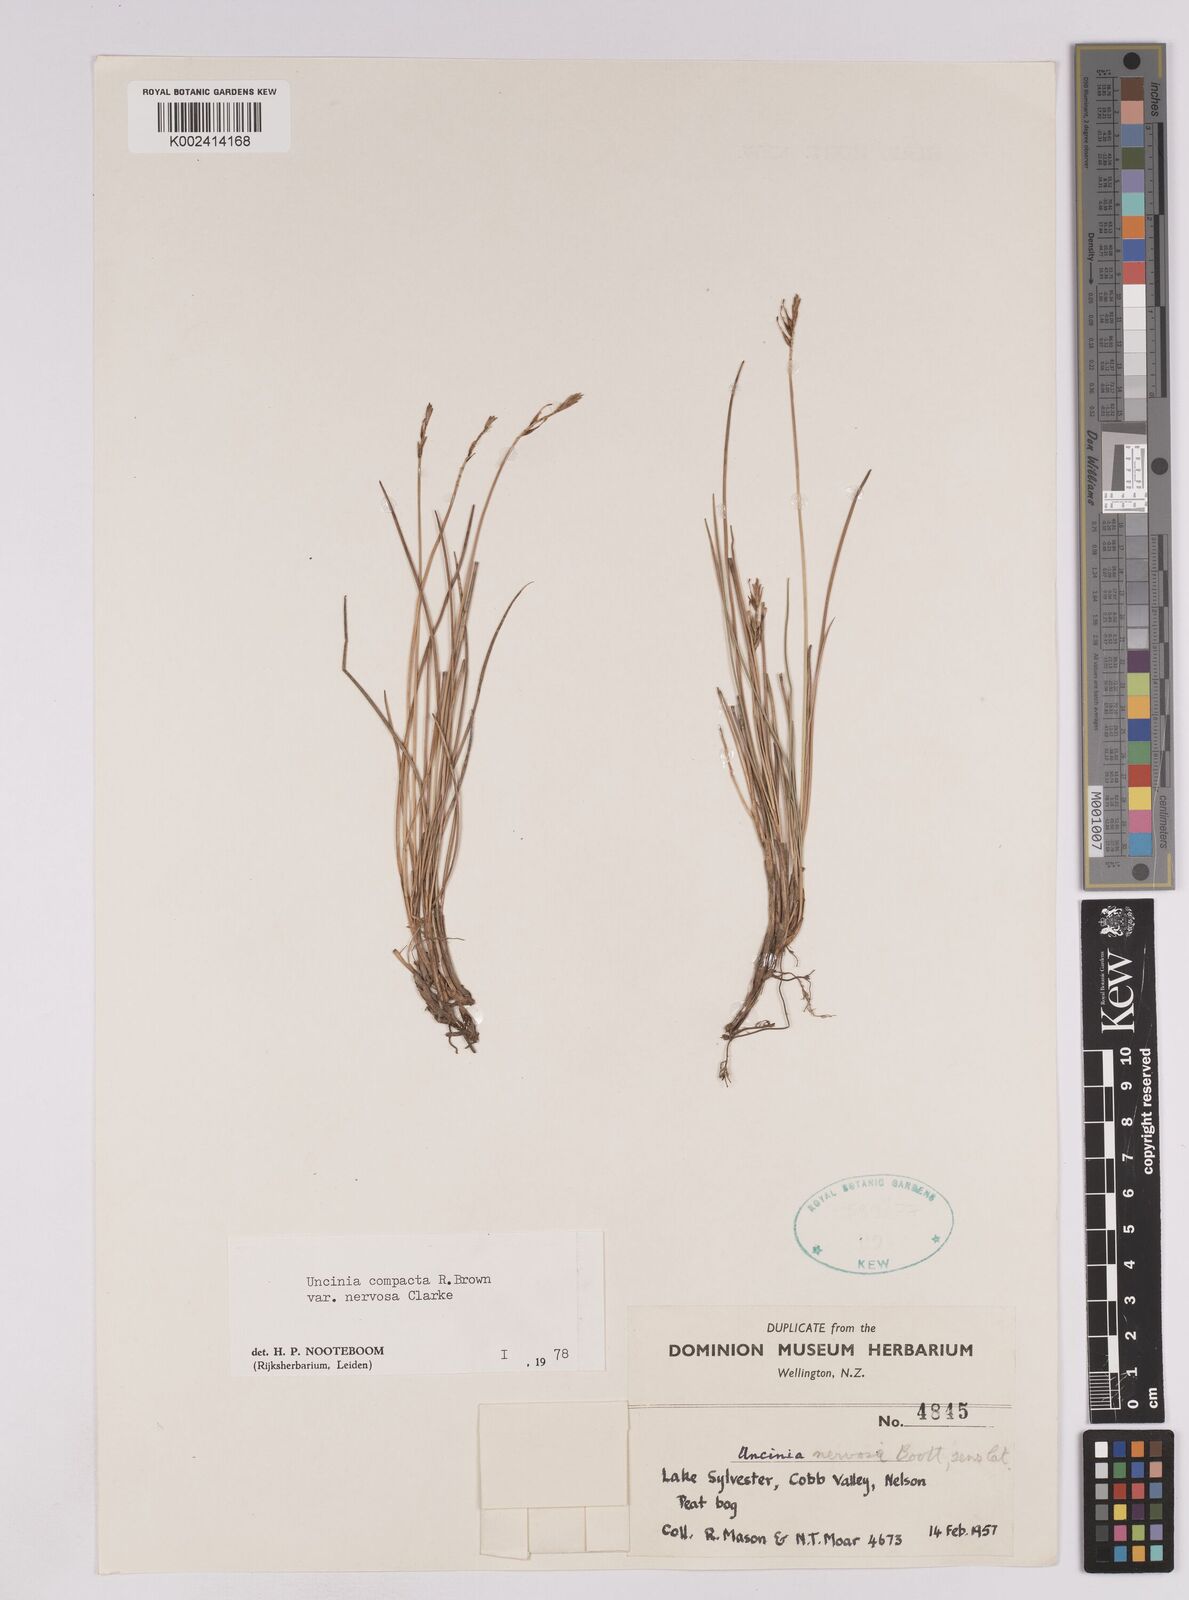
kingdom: Plantae
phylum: Tracheophyta
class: Liliopsida
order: Poales
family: Cyperaceae
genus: Carex
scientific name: Carex cheesemanniana
